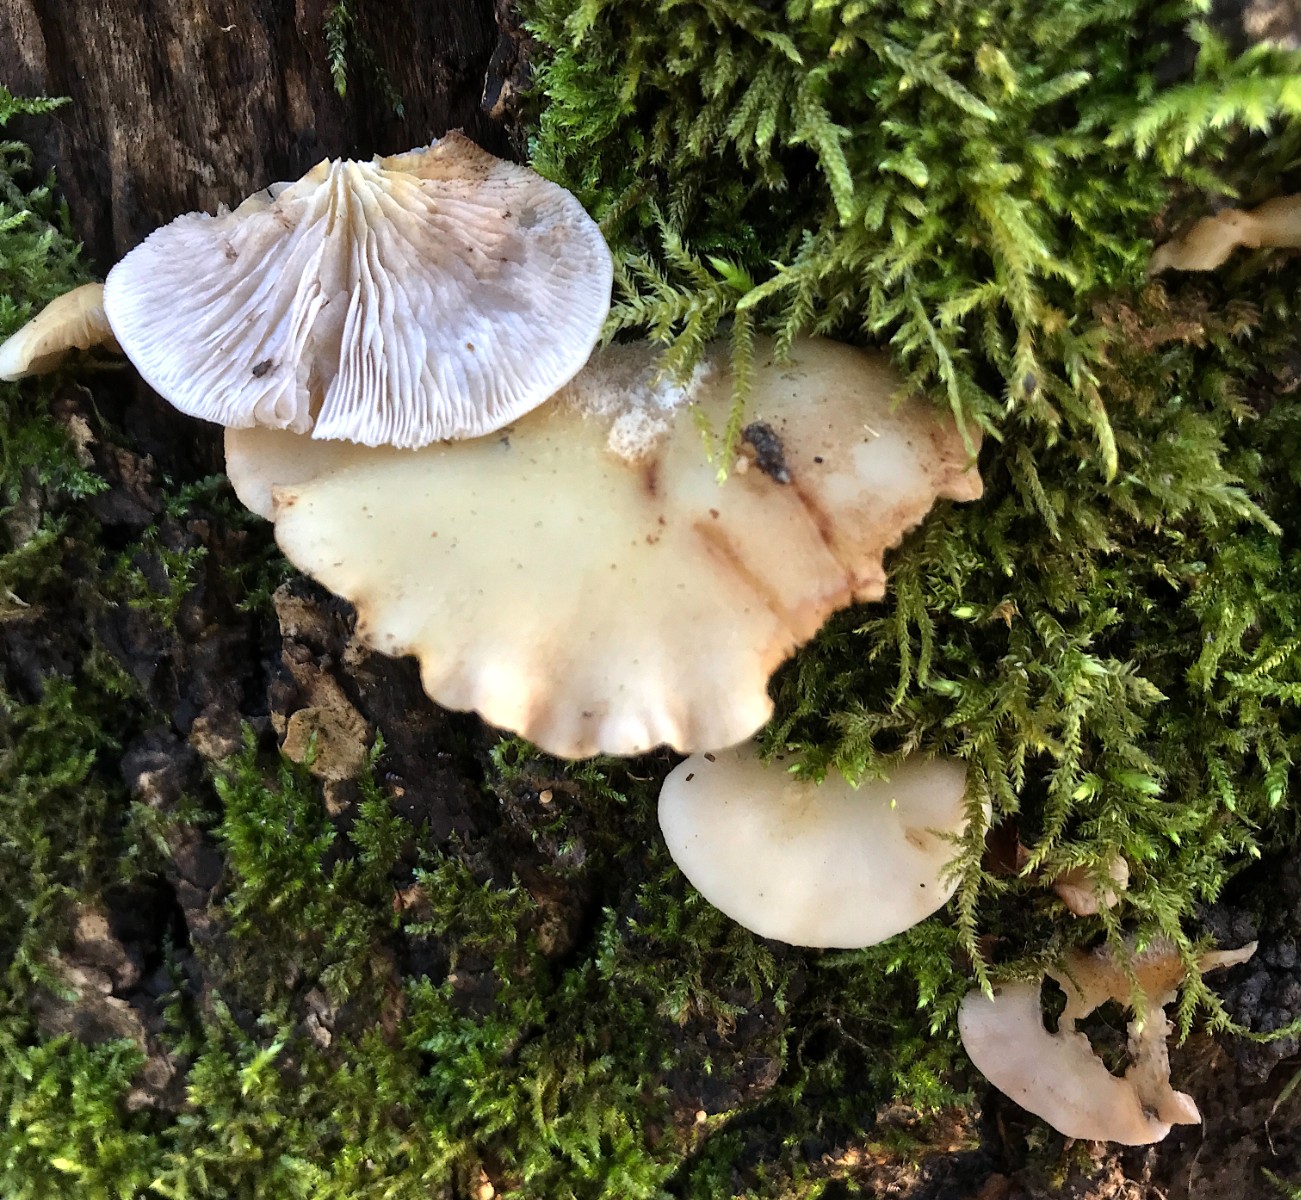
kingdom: Fungi
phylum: Basidiomycota
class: Agaricomycetes
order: Agaricales
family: Crepidotaceae
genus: Crepidotus
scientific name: Crepidotus mollis
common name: blød muslingesvamp
